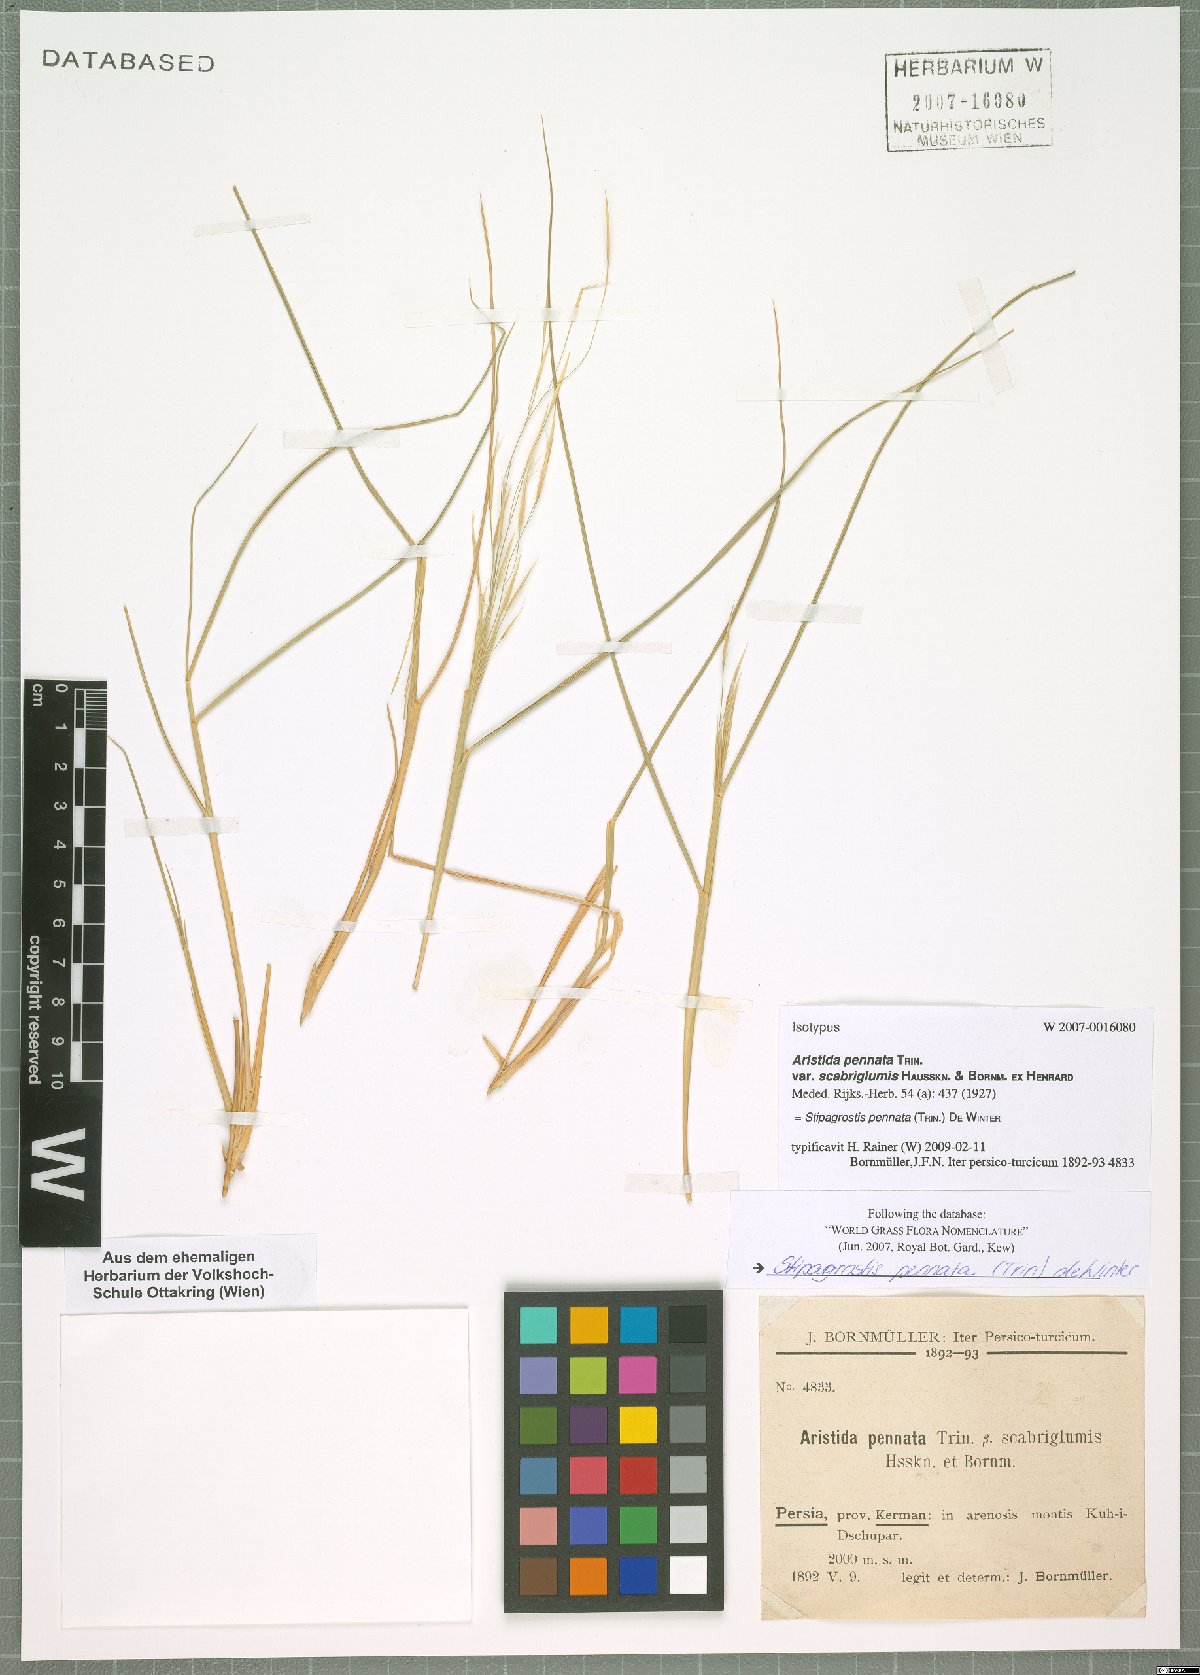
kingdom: Plantae
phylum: Tracheophyta
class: Liliopsida
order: Poales
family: Poaceae
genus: Stipagrostis
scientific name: Stipagrostis pennata
